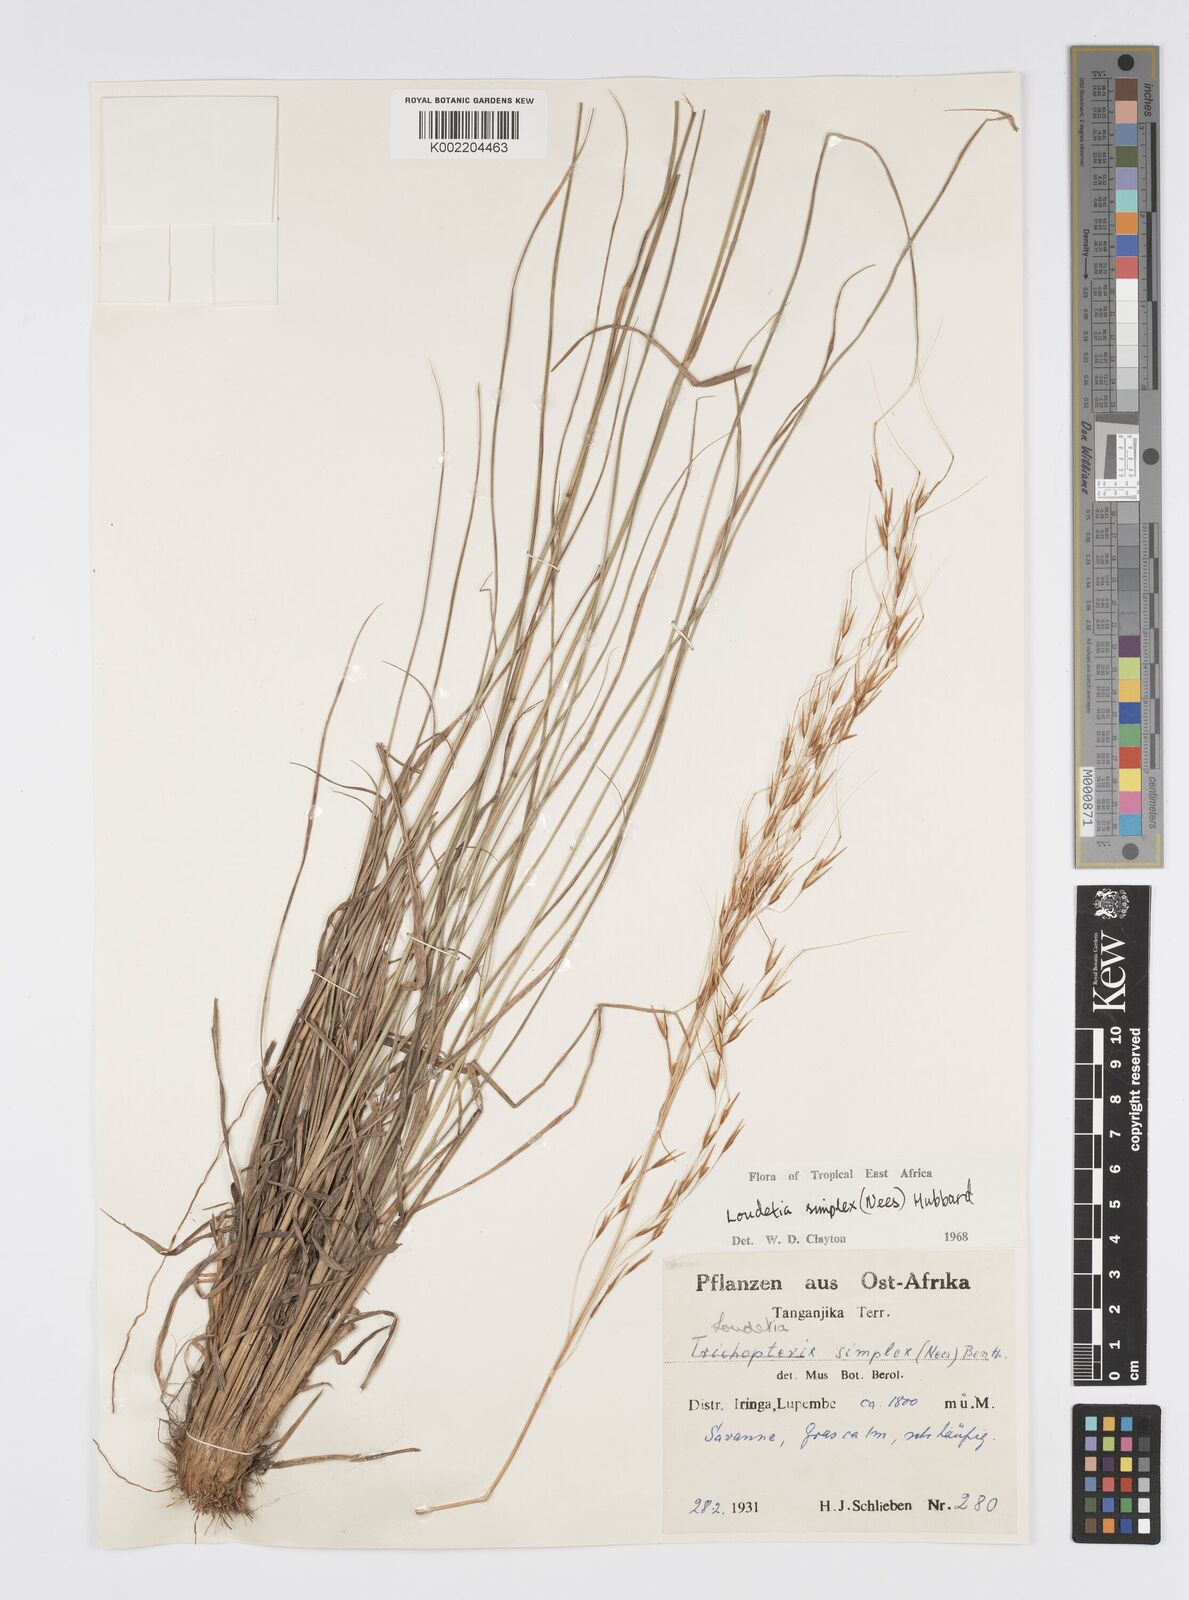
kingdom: Plantae
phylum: Tracheophyta
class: Liliopsida
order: Poales
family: Poaceae
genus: Loudetia
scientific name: Loudetia simplex
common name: Common russet grass
